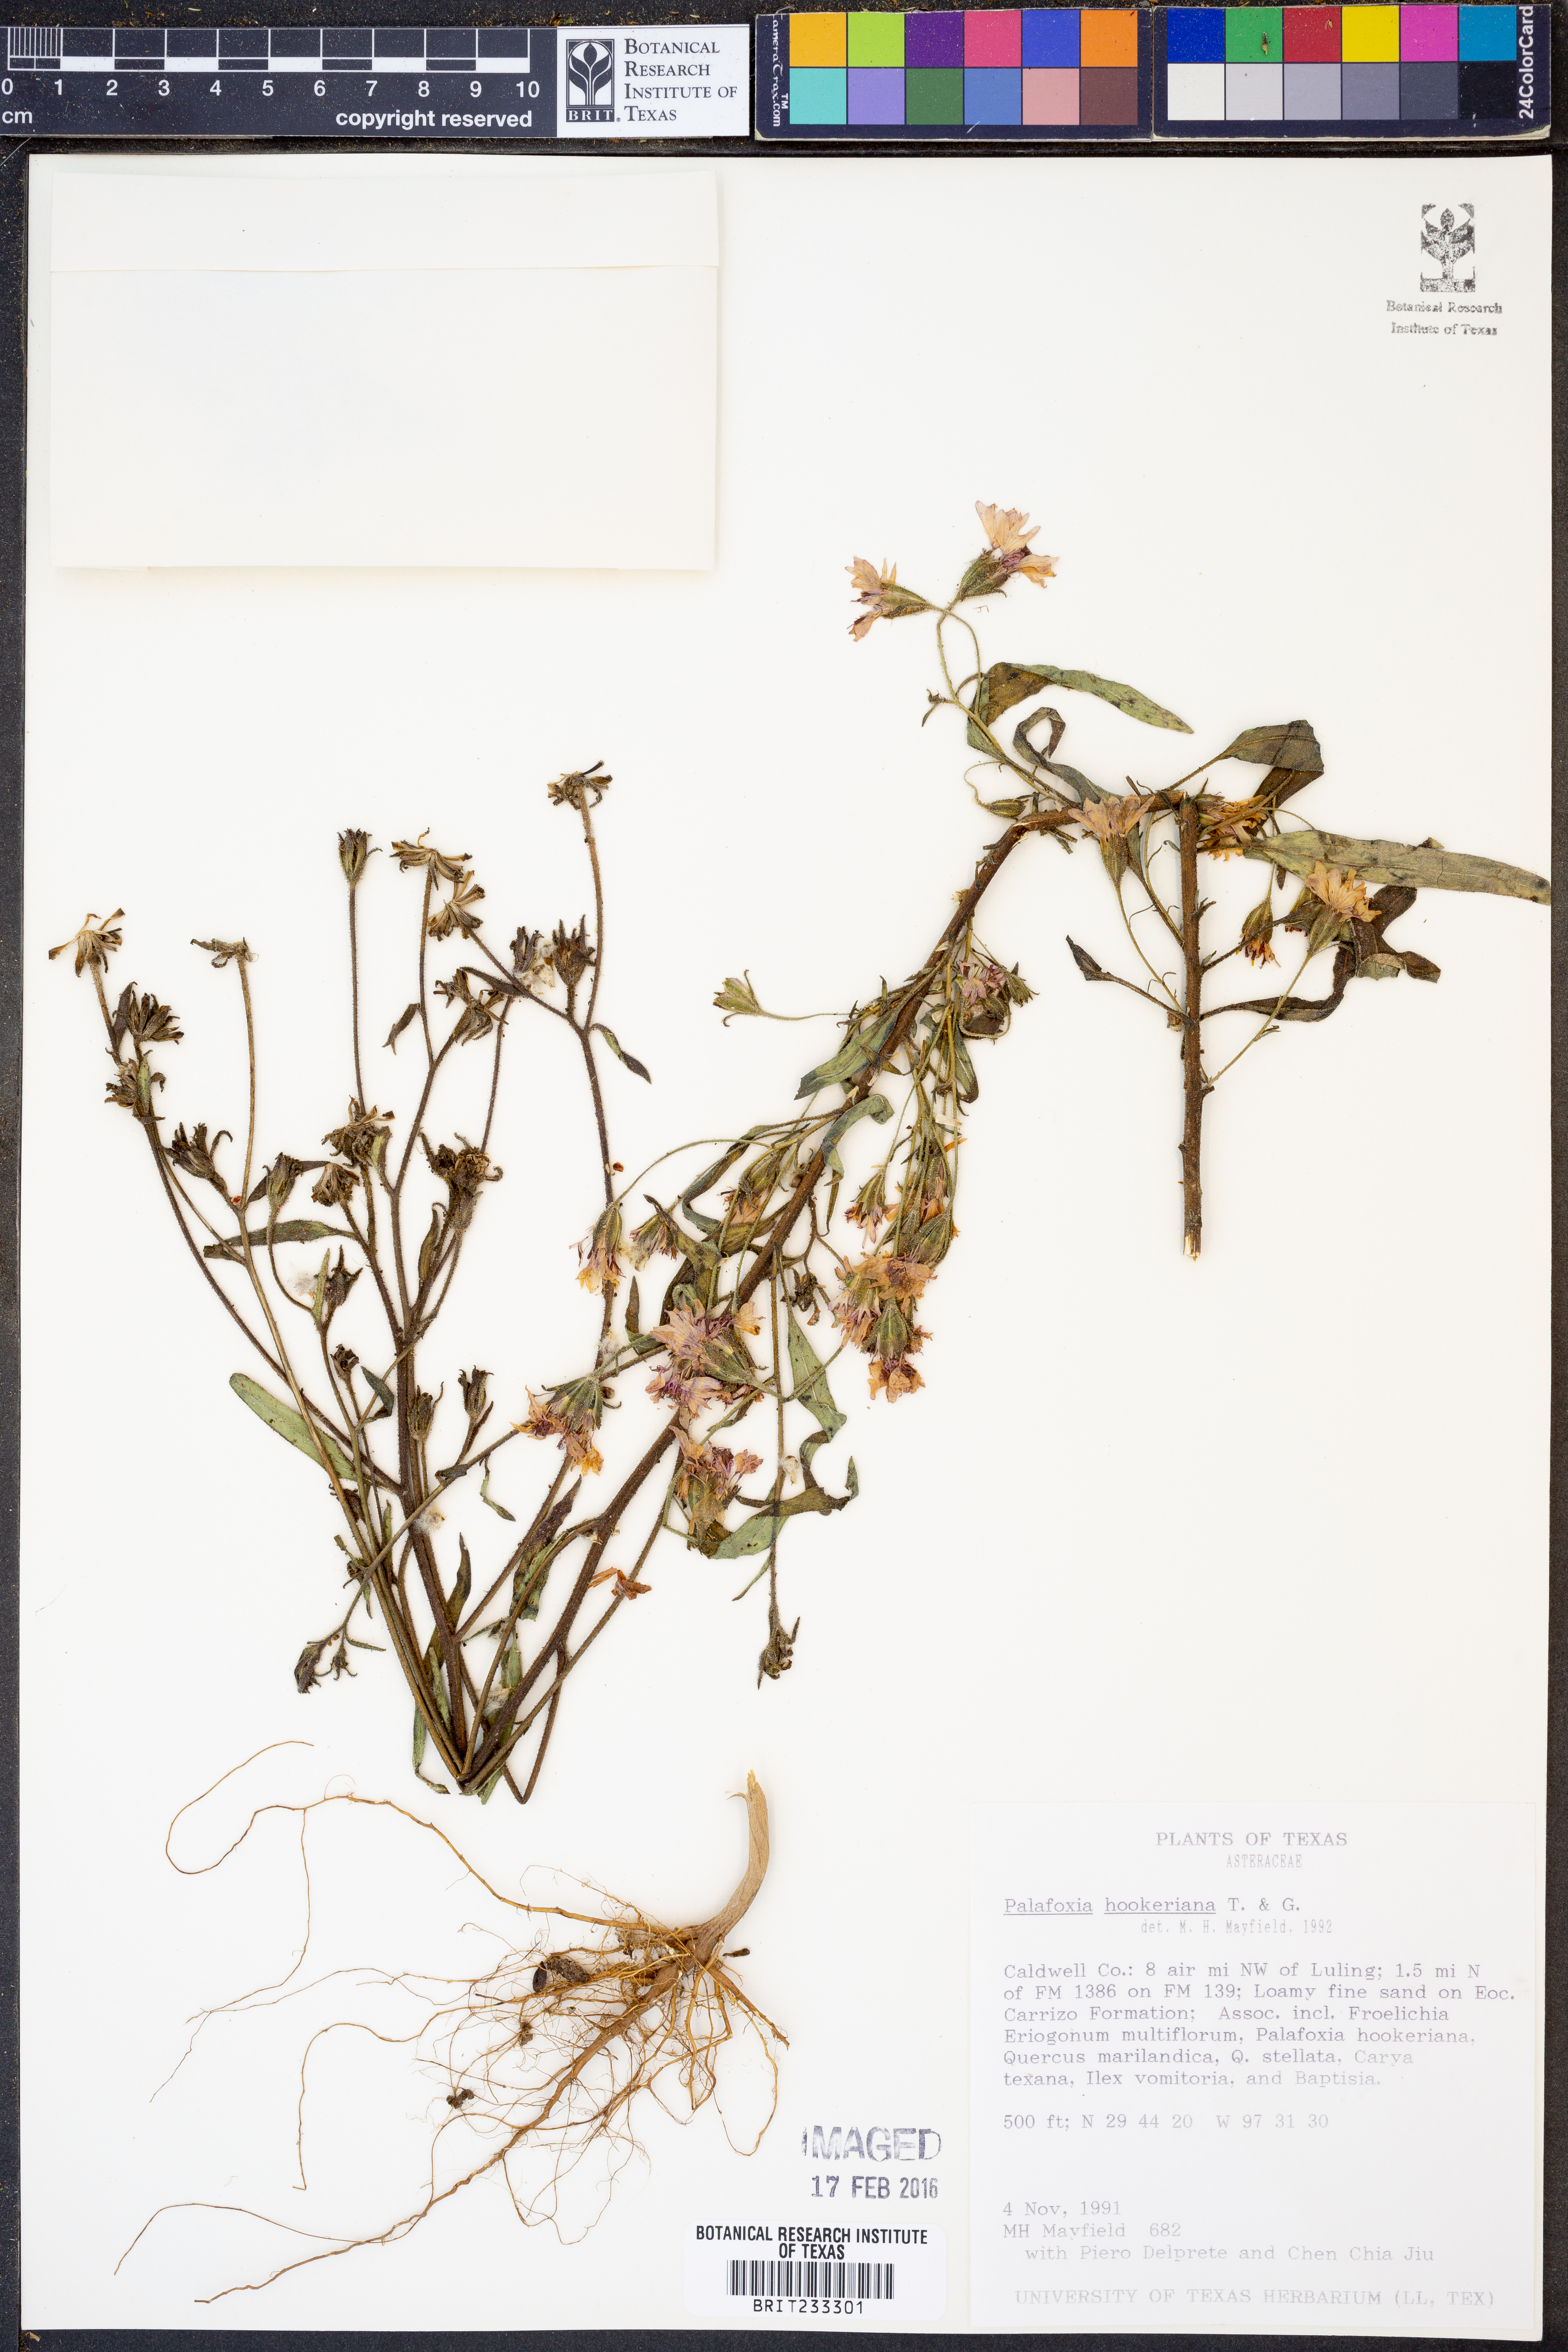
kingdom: Plantae
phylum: Tracheophyta
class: Magnoliopsida
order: Asterales
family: Asteraceae
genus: Palafoxia
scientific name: Palafoxia hookeriana
